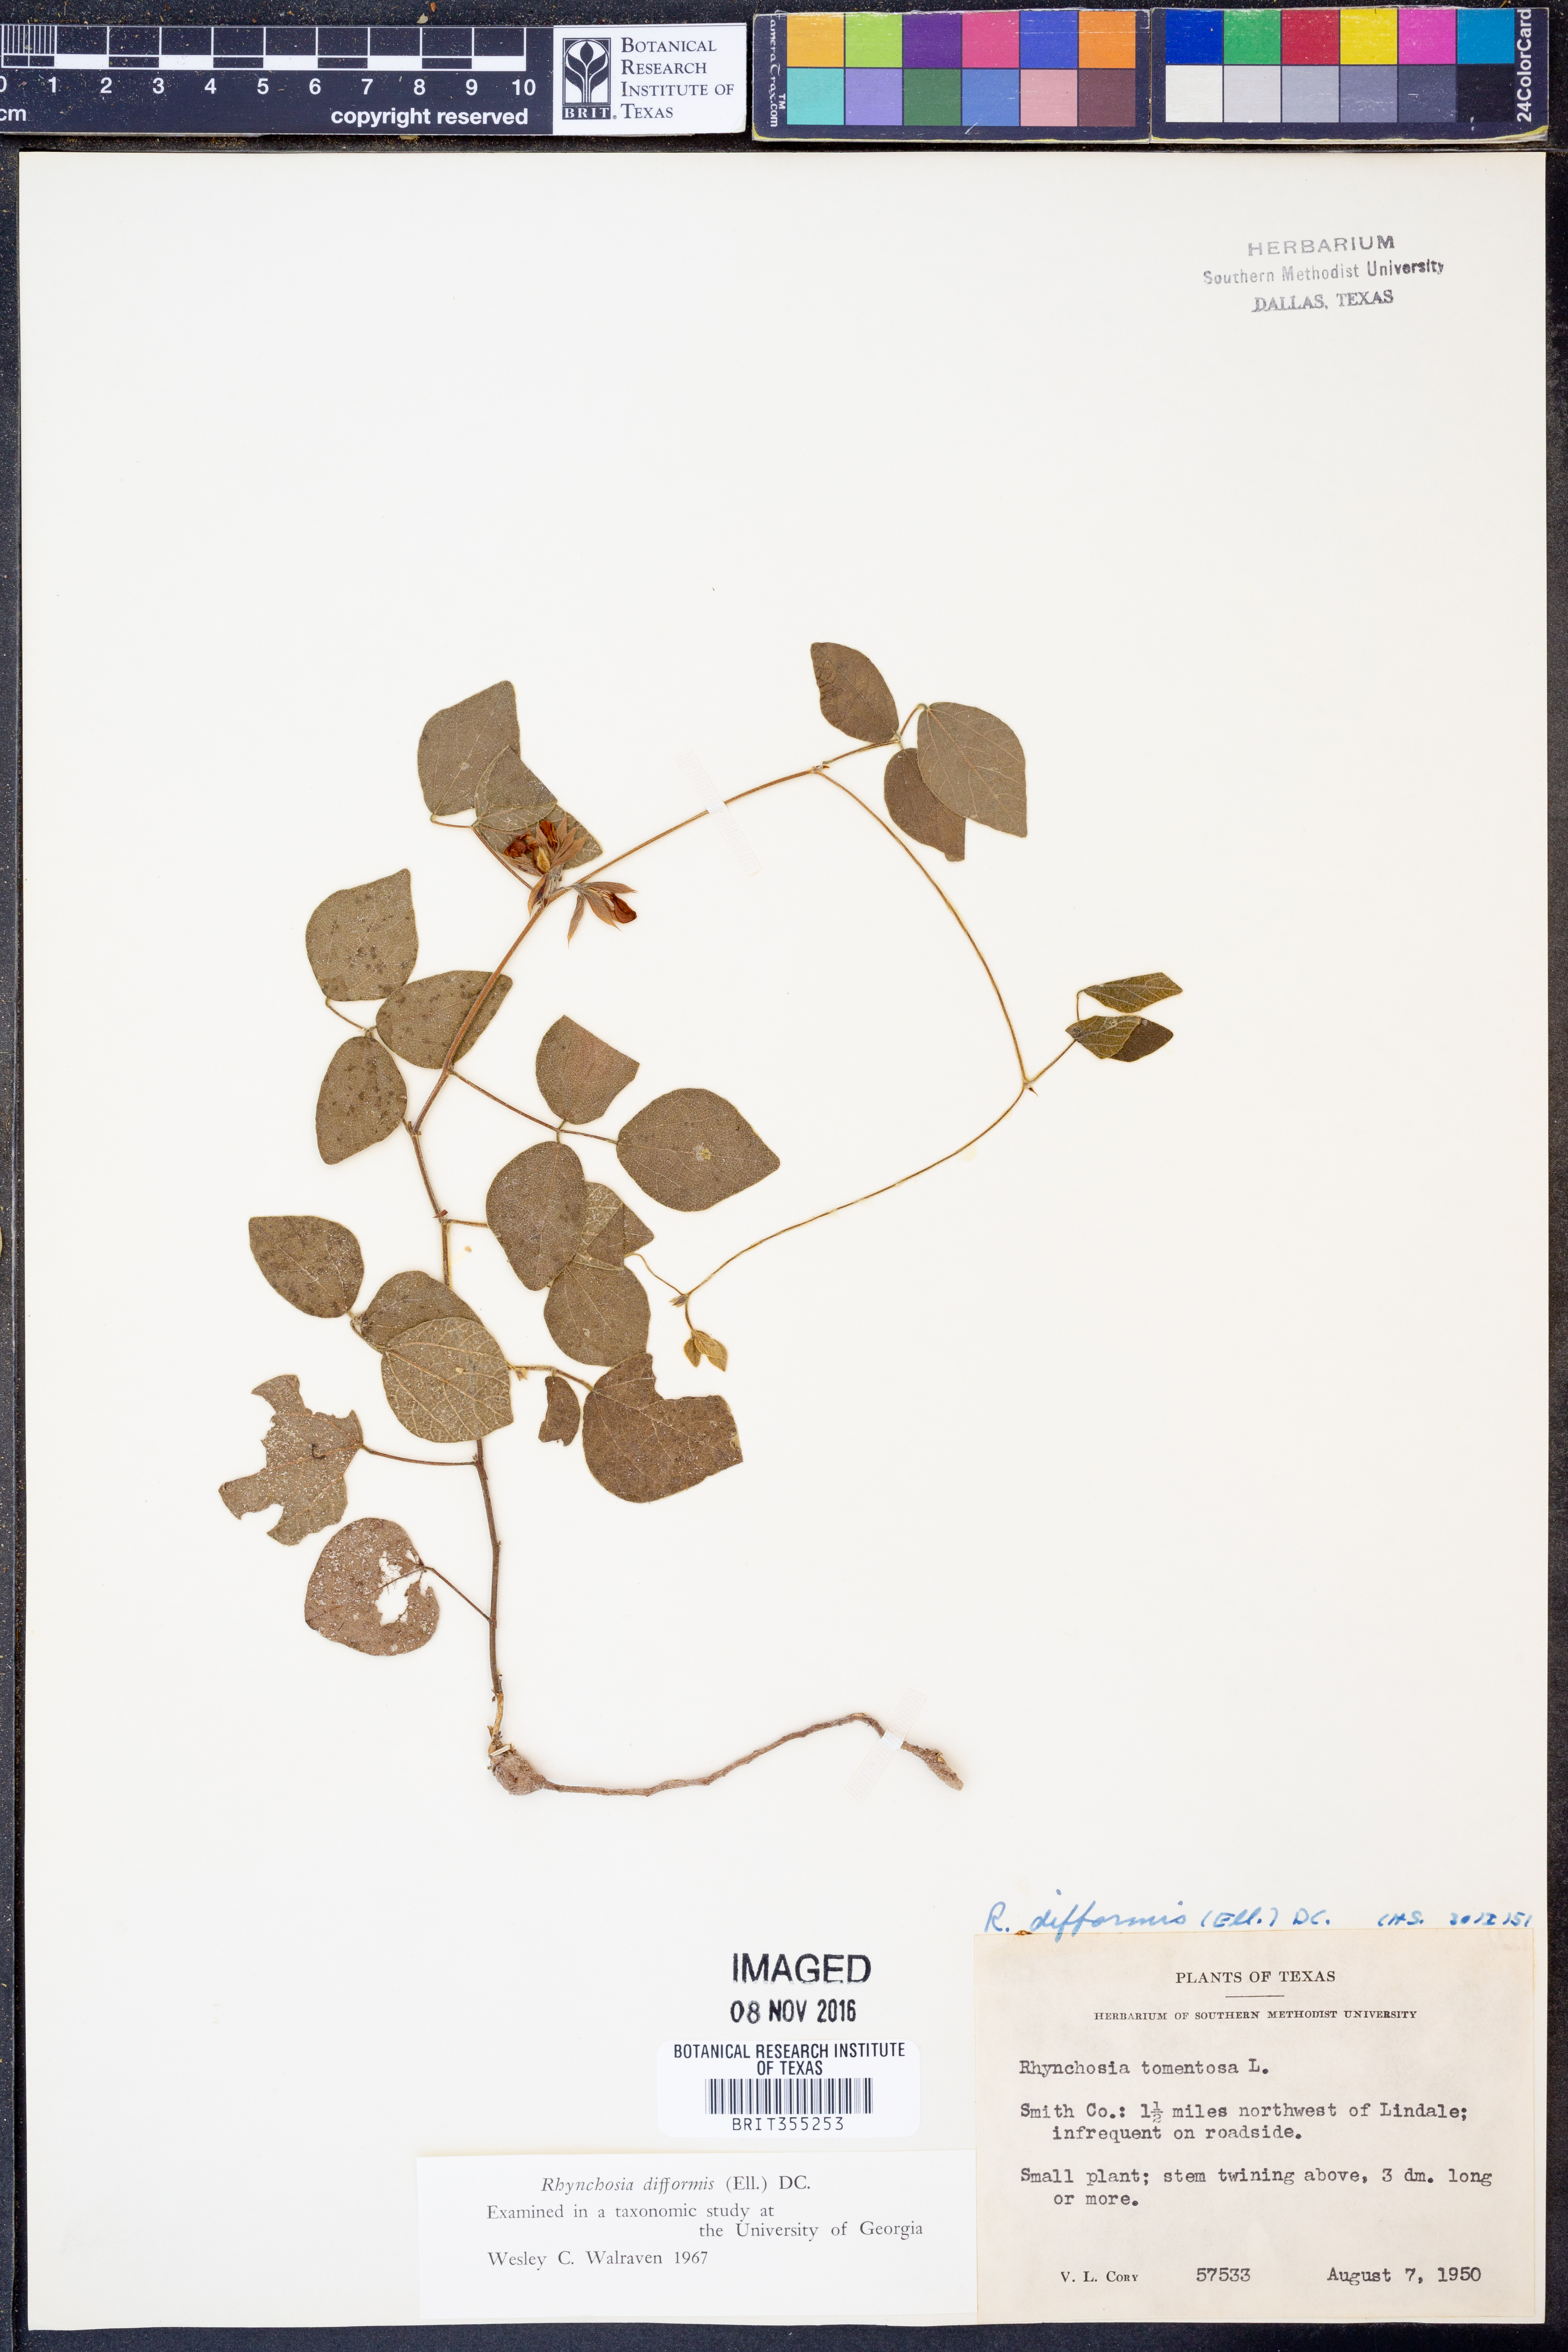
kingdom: Plantae
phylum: Tracheophyta
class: Magnoliopsida
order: Fabales
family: Fabaceae
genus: Rhynchosia
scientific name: Rhynchosia difformis
